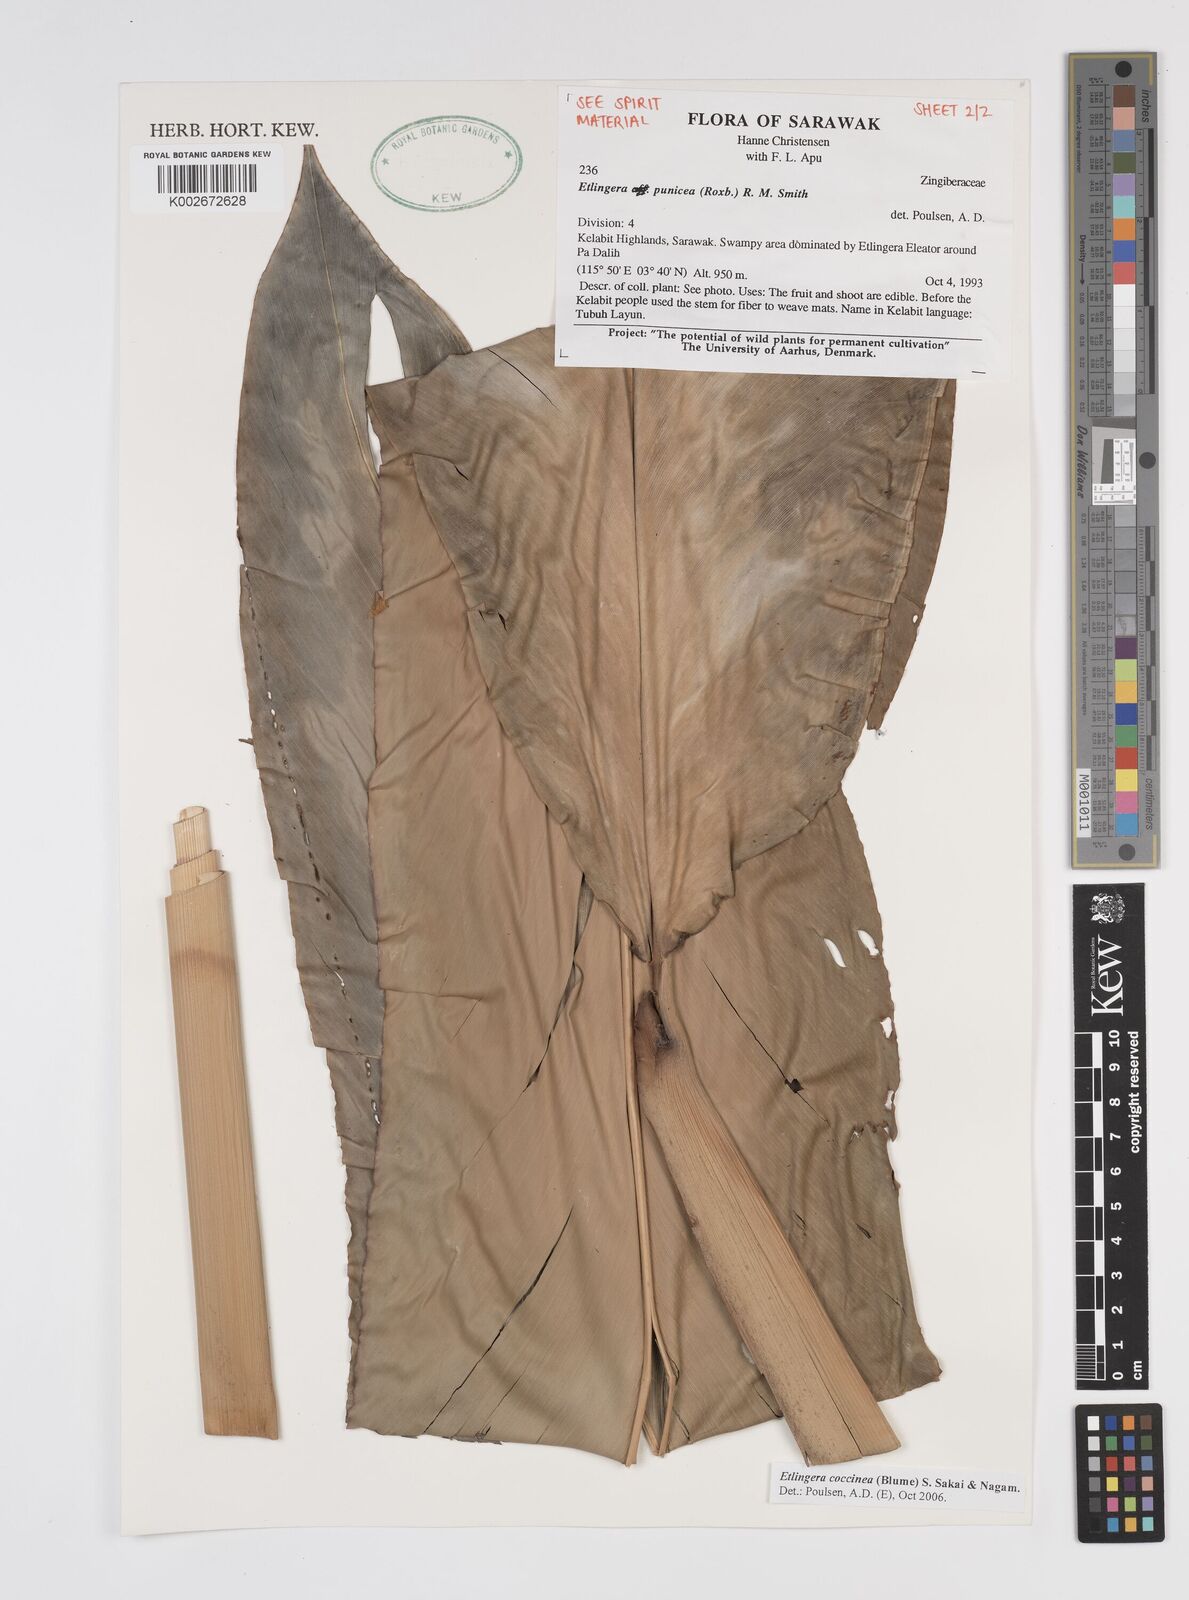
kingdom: Plantae
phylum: Tracheophyta
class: Liliopsida
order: Zingiberales
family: Zingiberaceae
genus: Etlingera
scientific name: Etlingera coccinea
